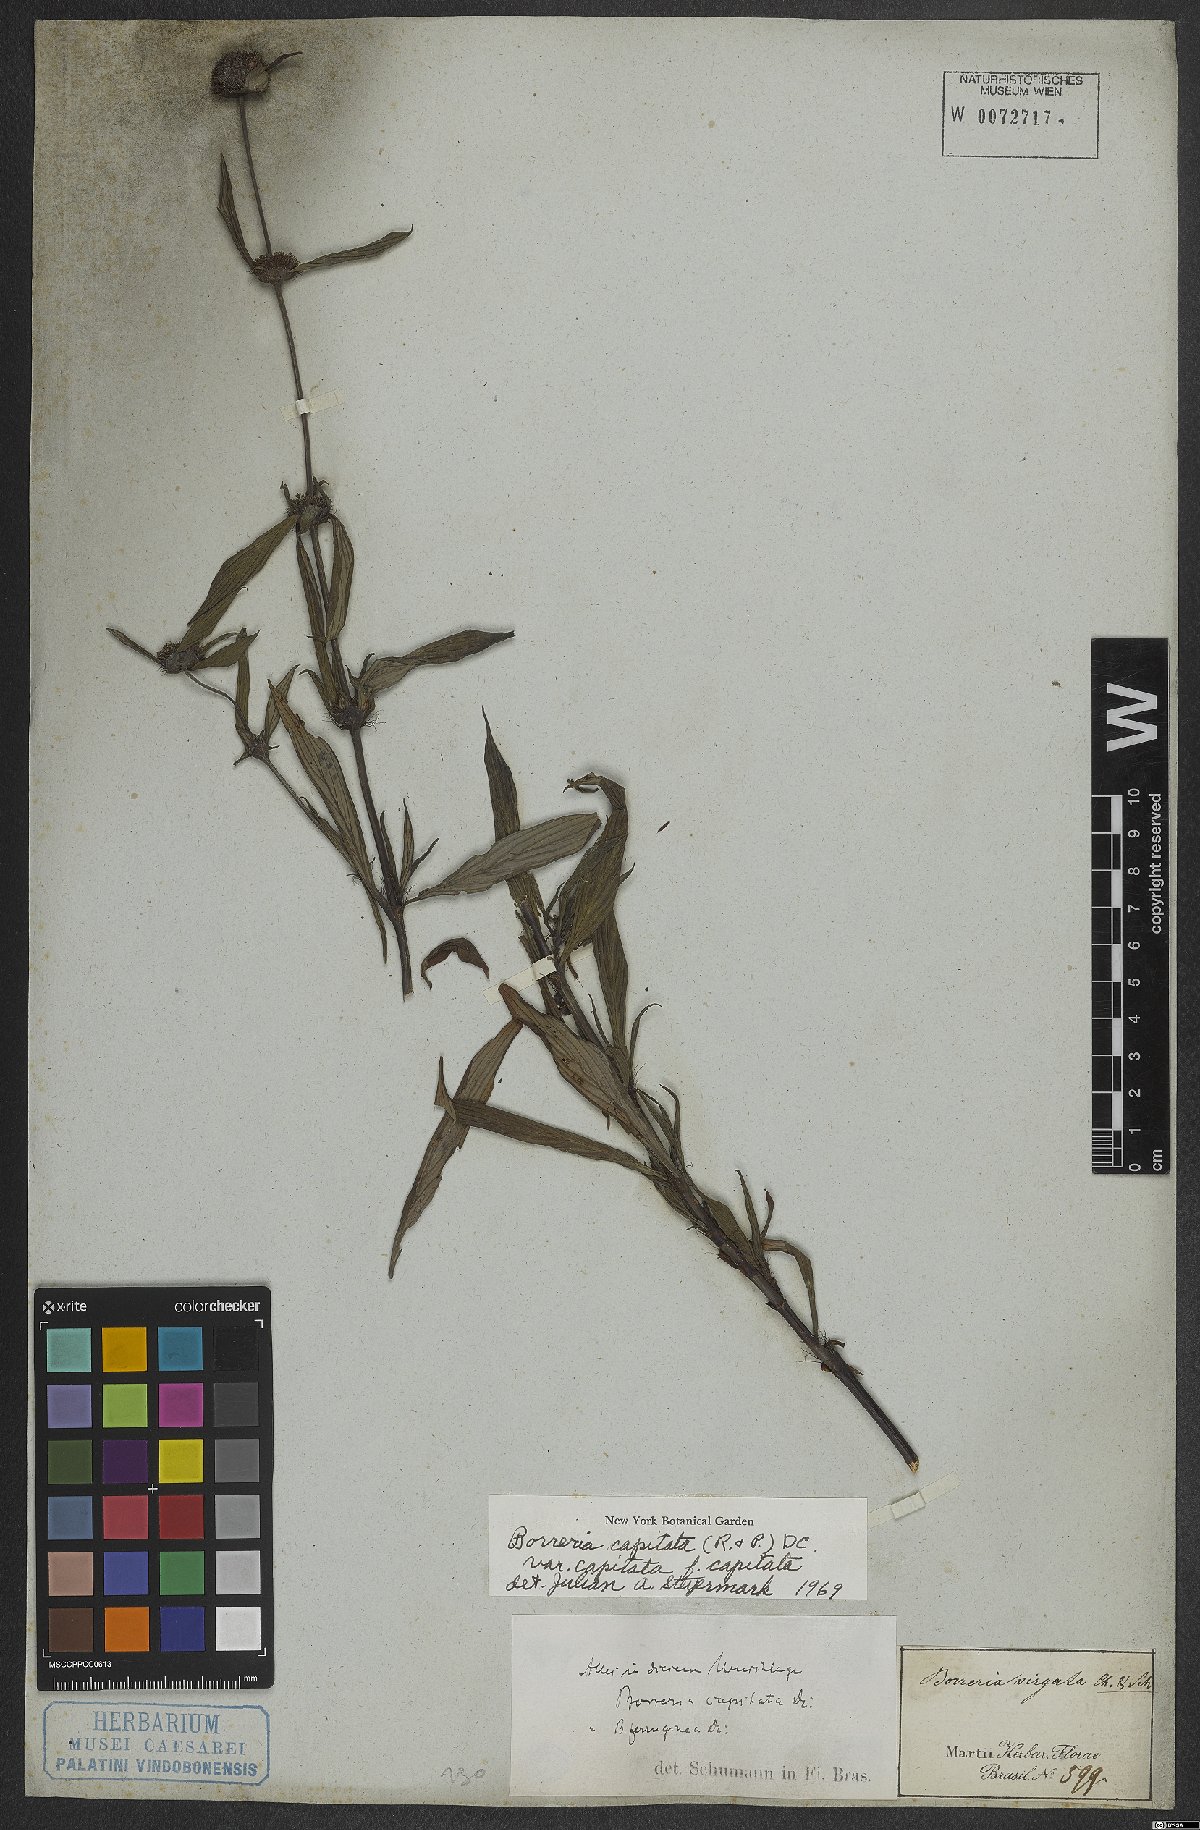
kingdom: Plantae
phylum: Tracheophyta
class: Magnoliopsida
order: Gentianales
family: Rubiaceae
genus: Spermacoce
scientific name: Spermacoce capitata
